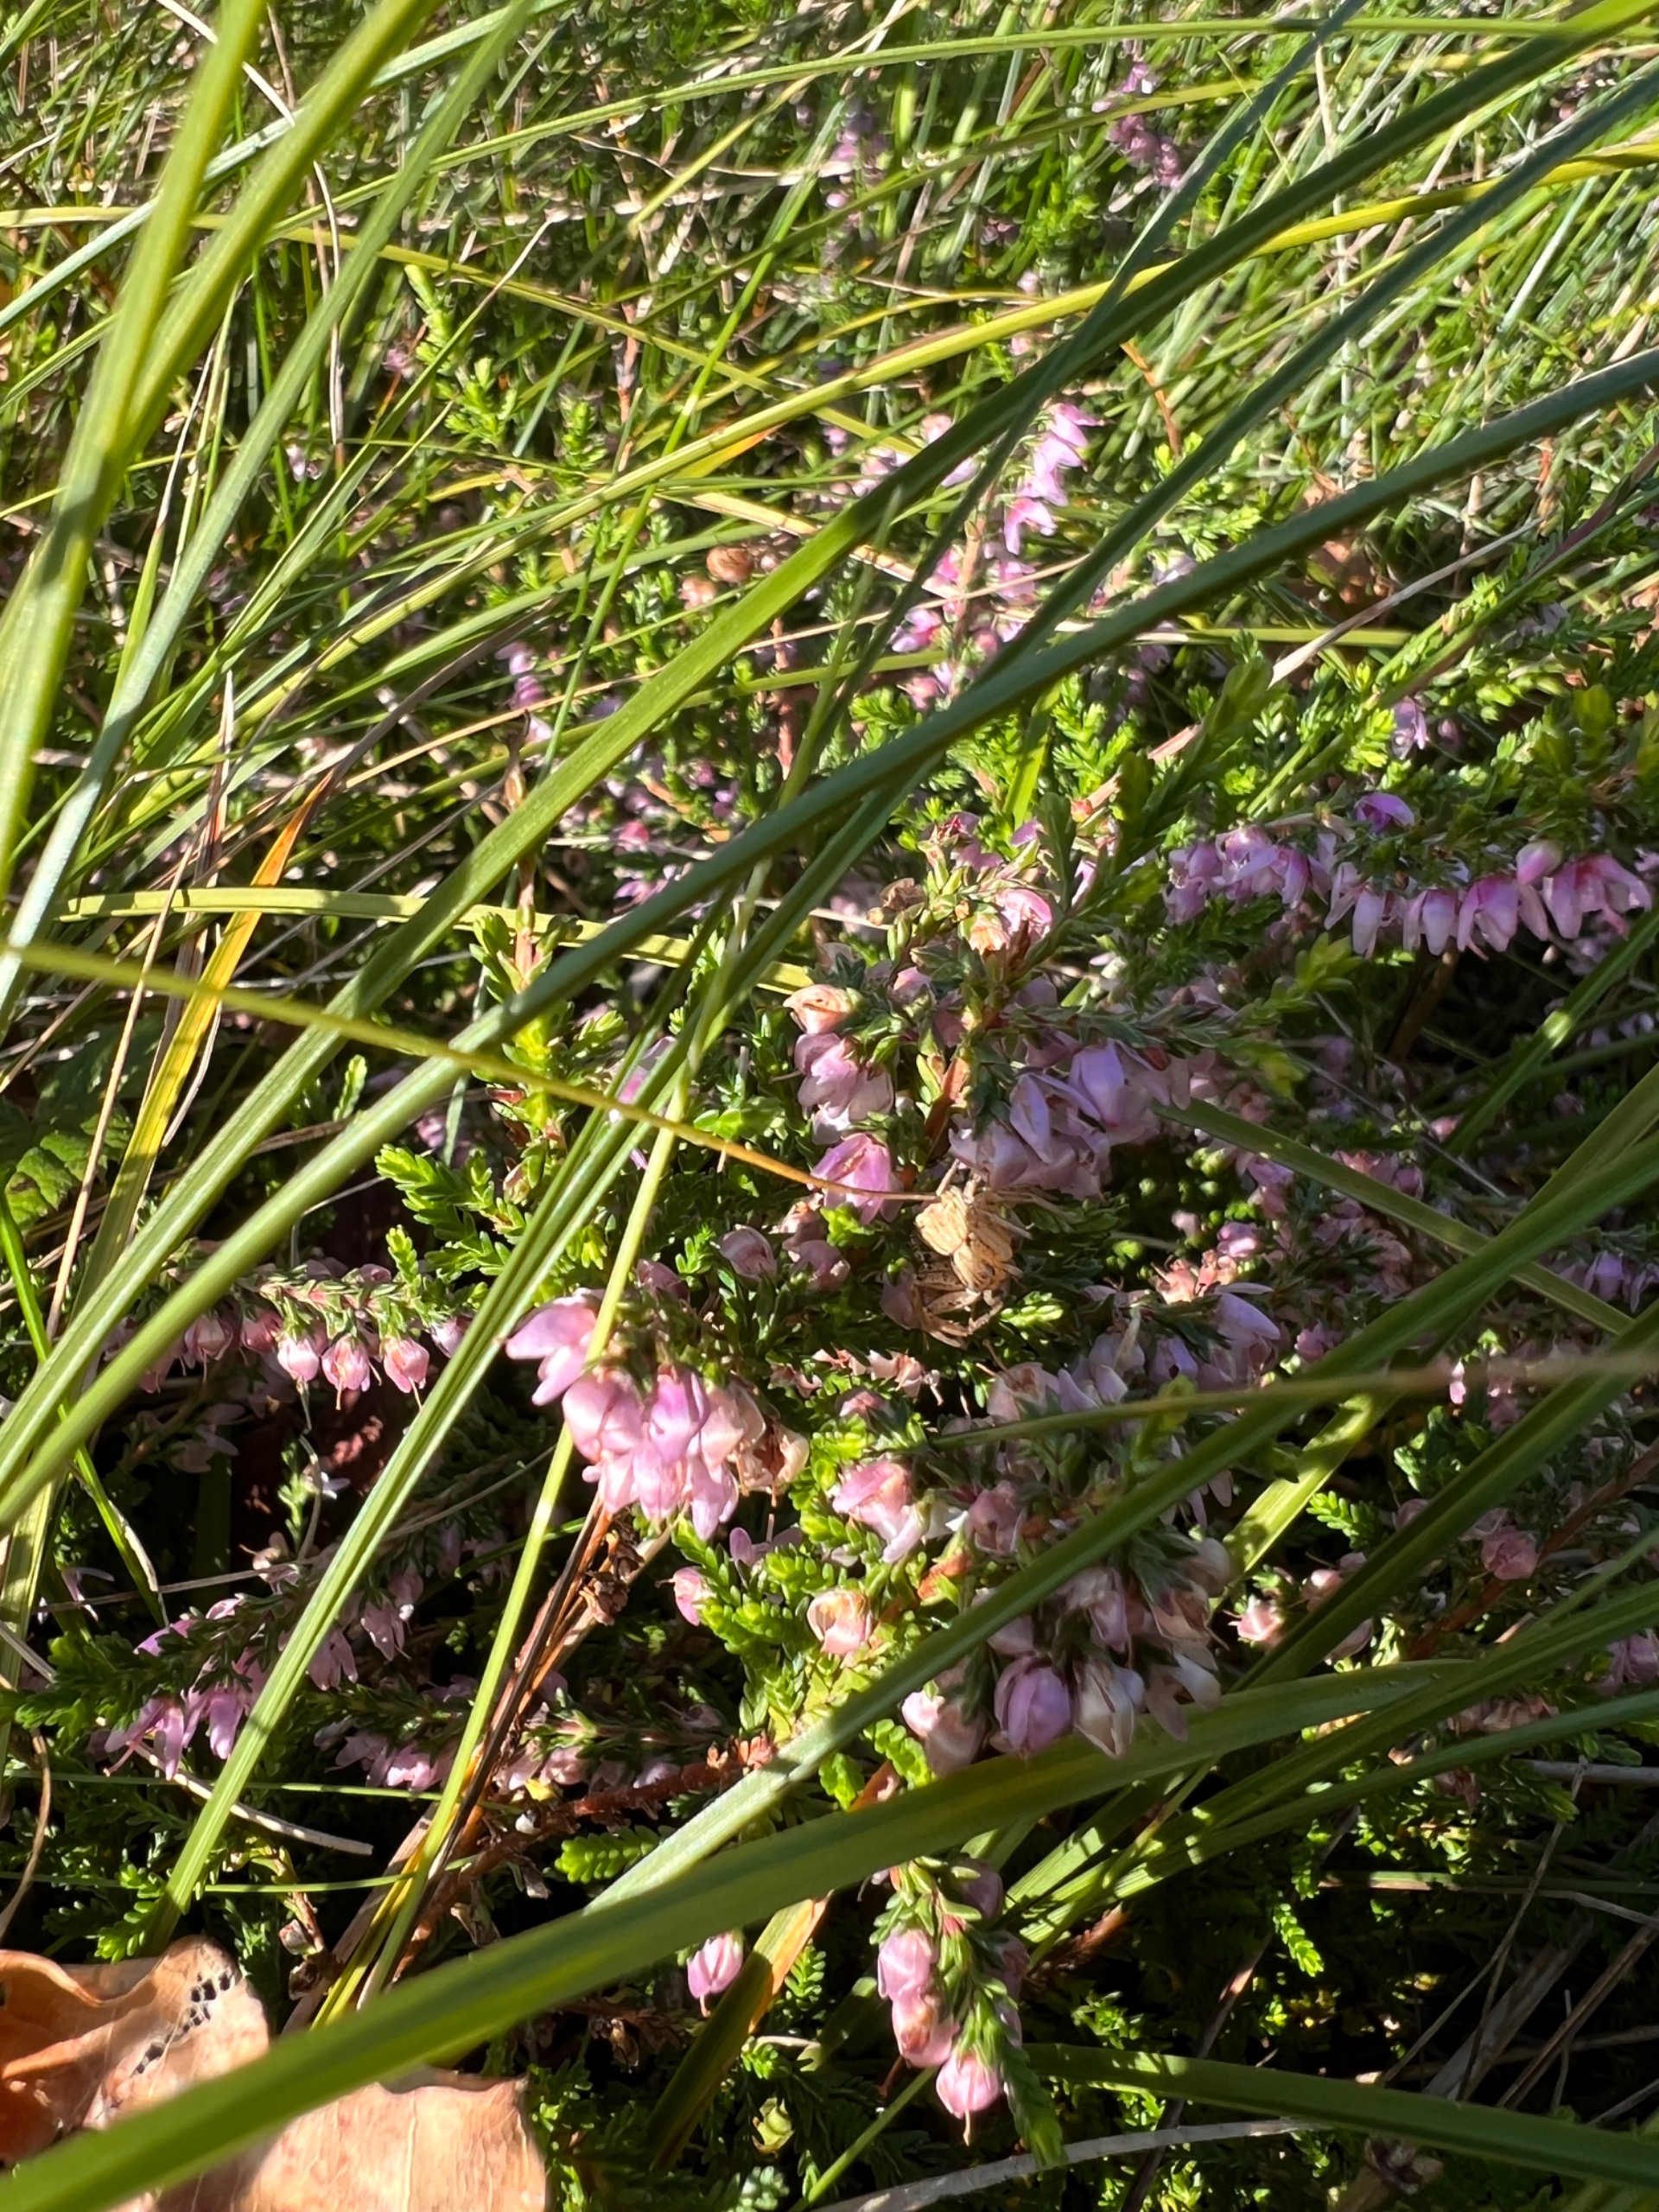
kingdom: Plantae
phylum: Tracheophyta
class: Magnoliopsida
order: Ericales
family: Ericaceae
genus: Calluna
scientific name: Calluna vulgaris
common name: Hedelyng
